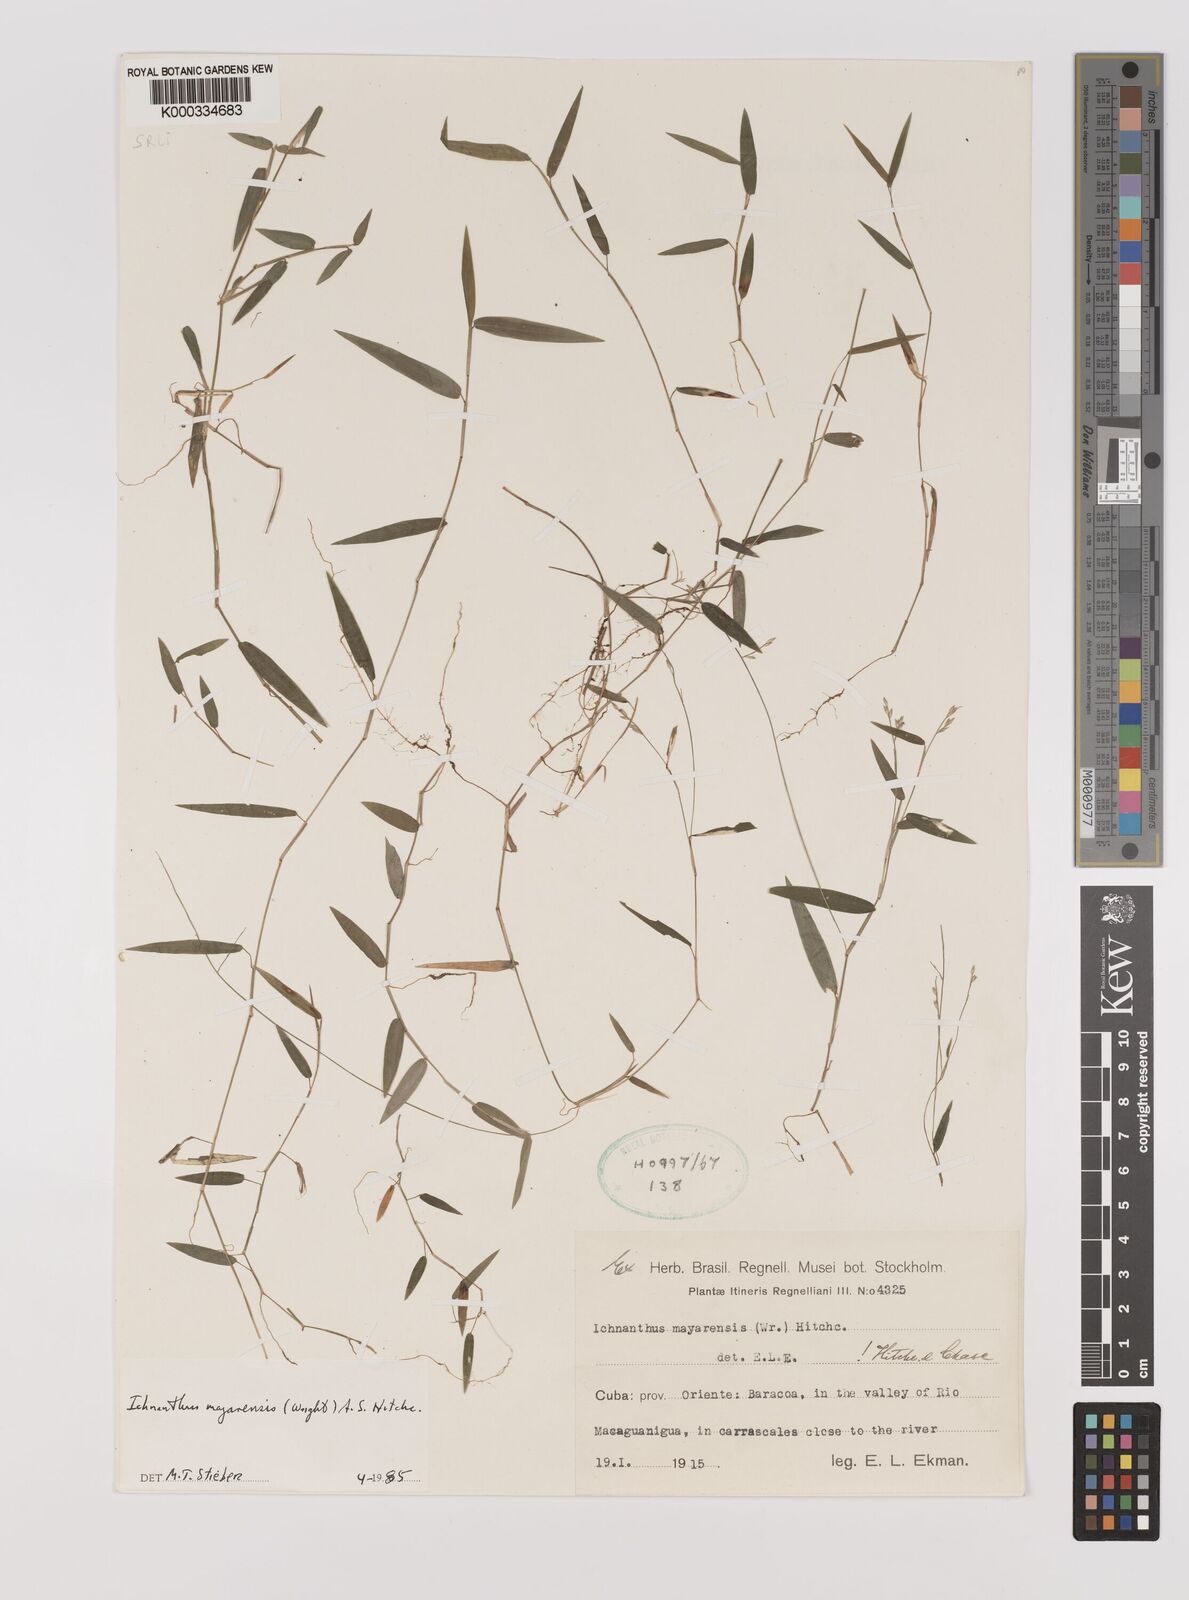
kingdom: Plantae
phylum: Tracheophyta
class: Liliopsida
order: Poales
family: Poaceae
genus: Oedochloa
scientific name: Oedochloa mayarensis
